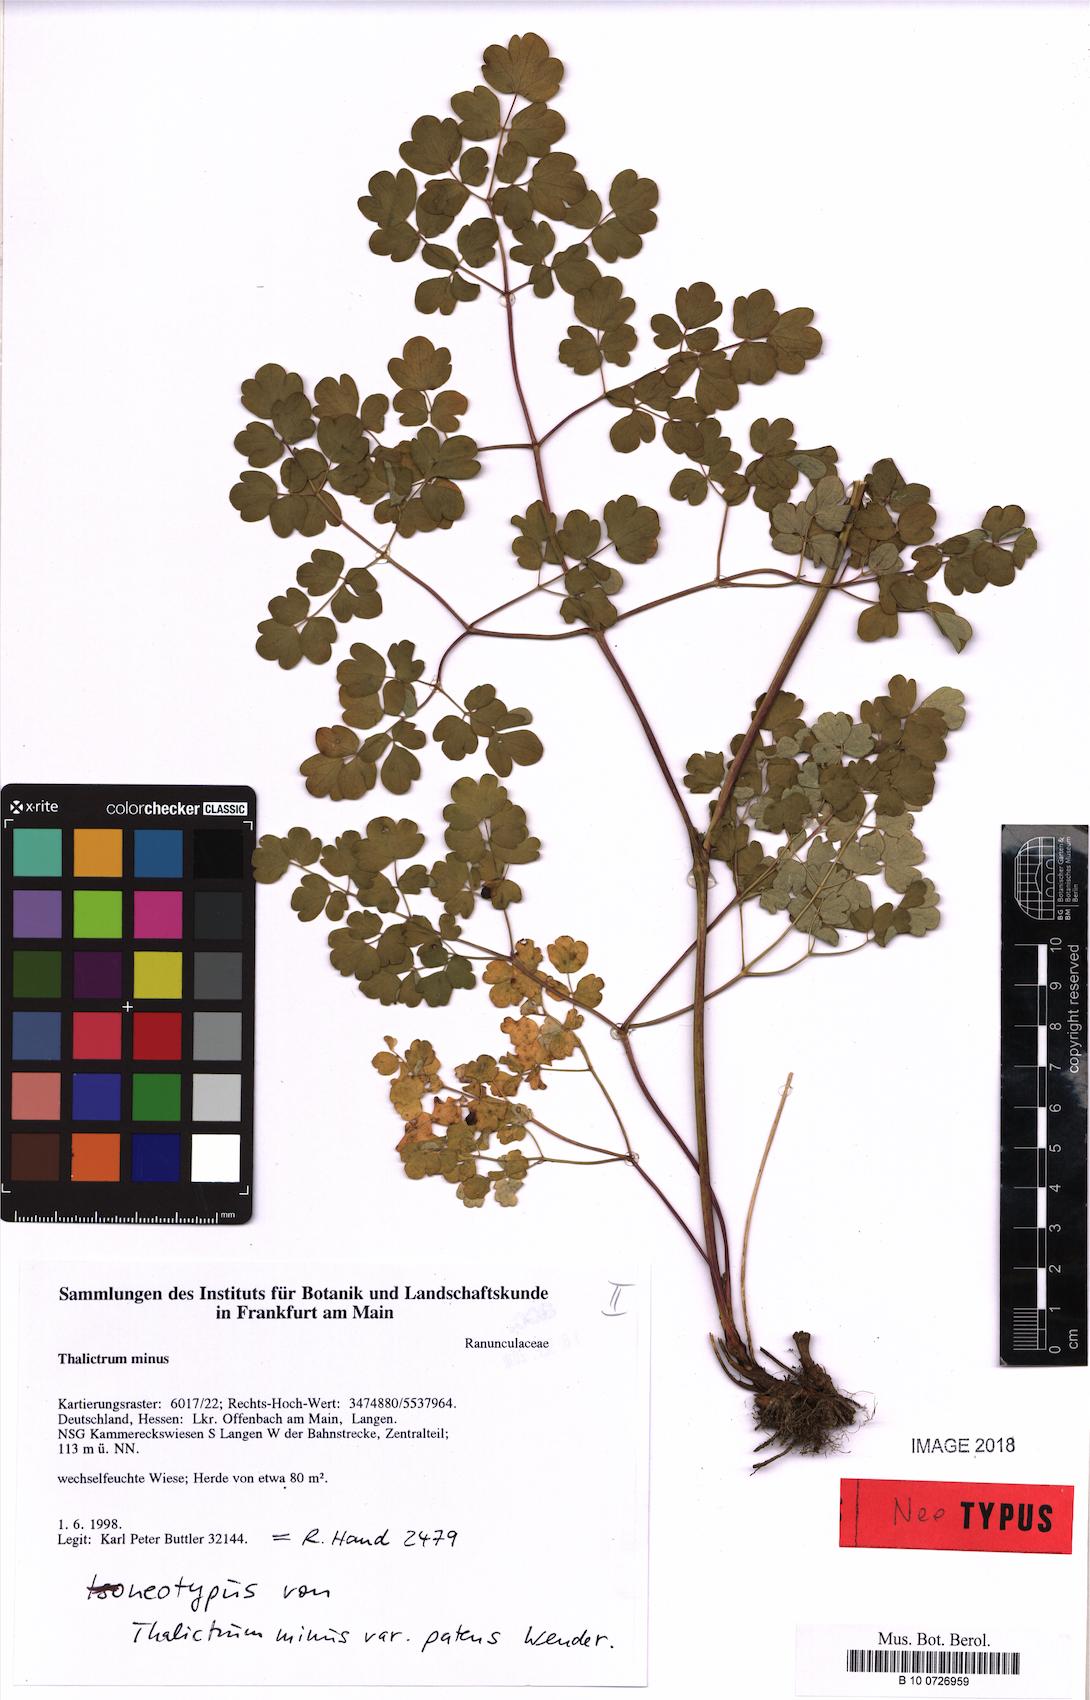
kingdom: Plantae
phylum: Tracheophyta
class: Magnoliopsida
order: Ranunculales
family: Ranunculaceae
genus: Thalictrum
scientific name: Thalictrum minus
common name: Lesser meadow-rue
